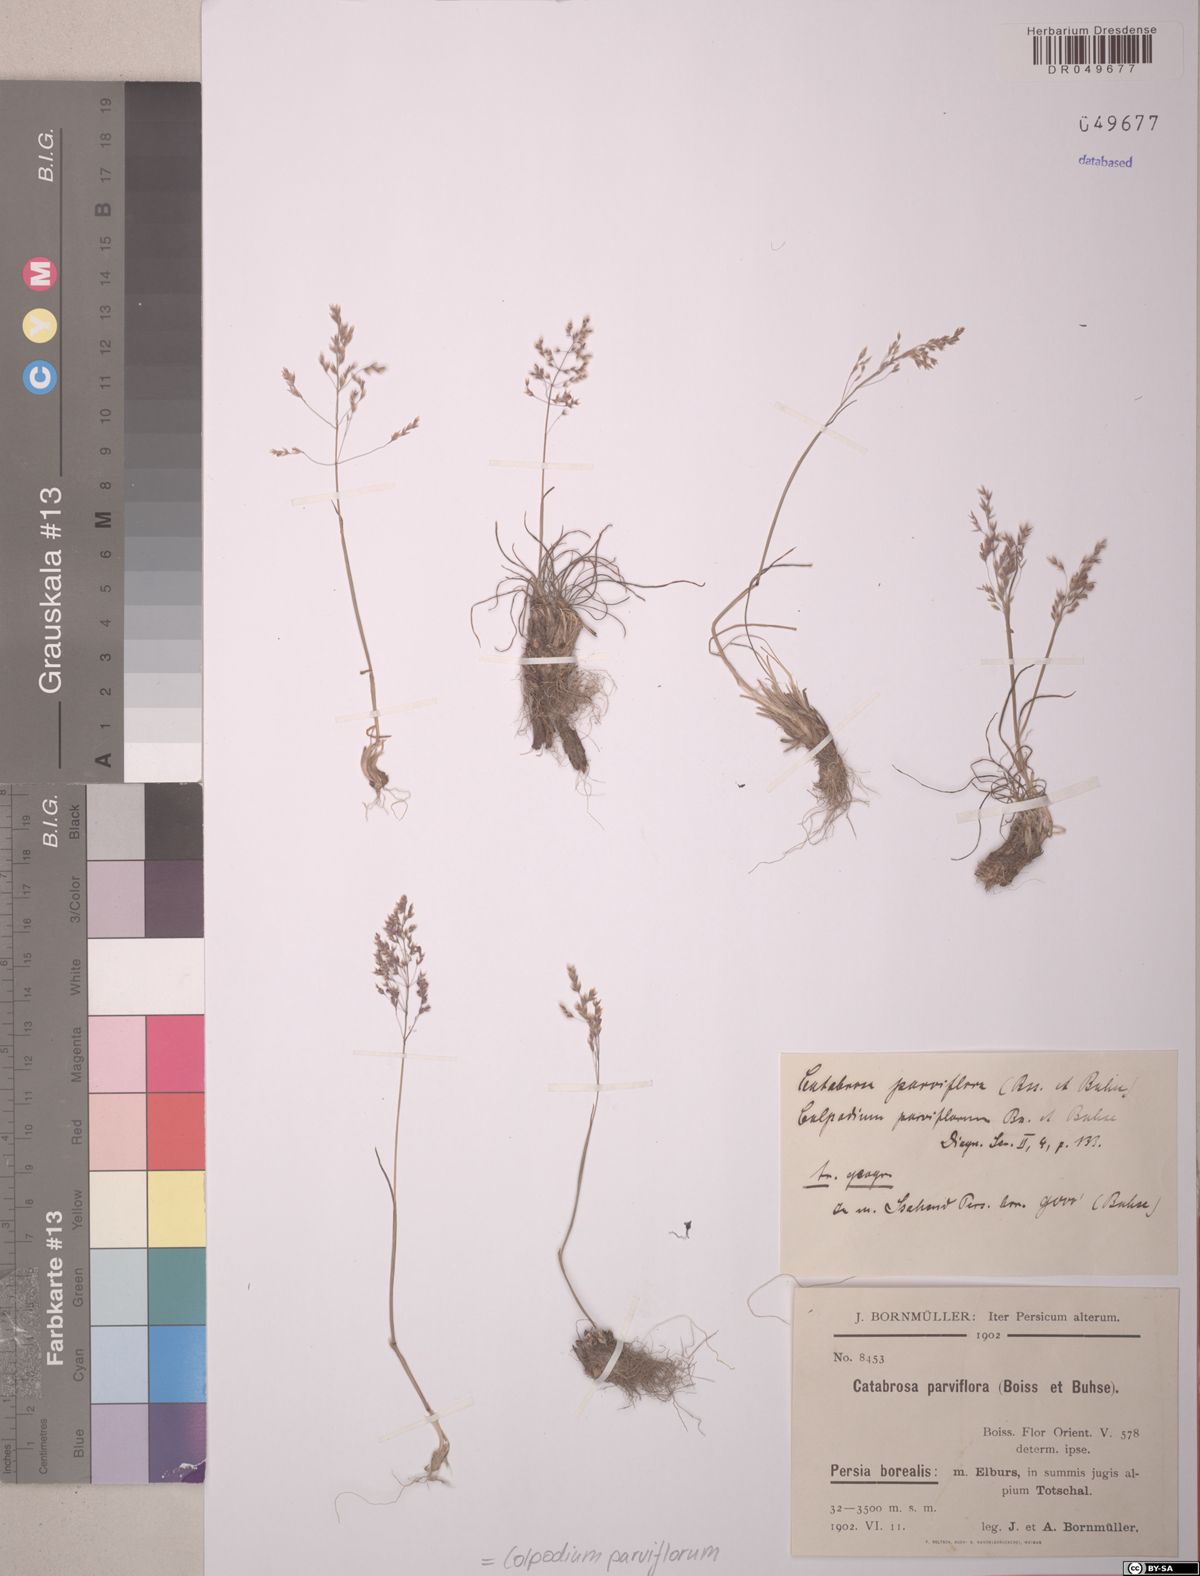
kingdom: Plantae
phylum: Tracheophyta
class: Liliopsida
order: Poales
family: Poaceae
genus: Catabrosella
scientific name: Catabrosella parviflora
